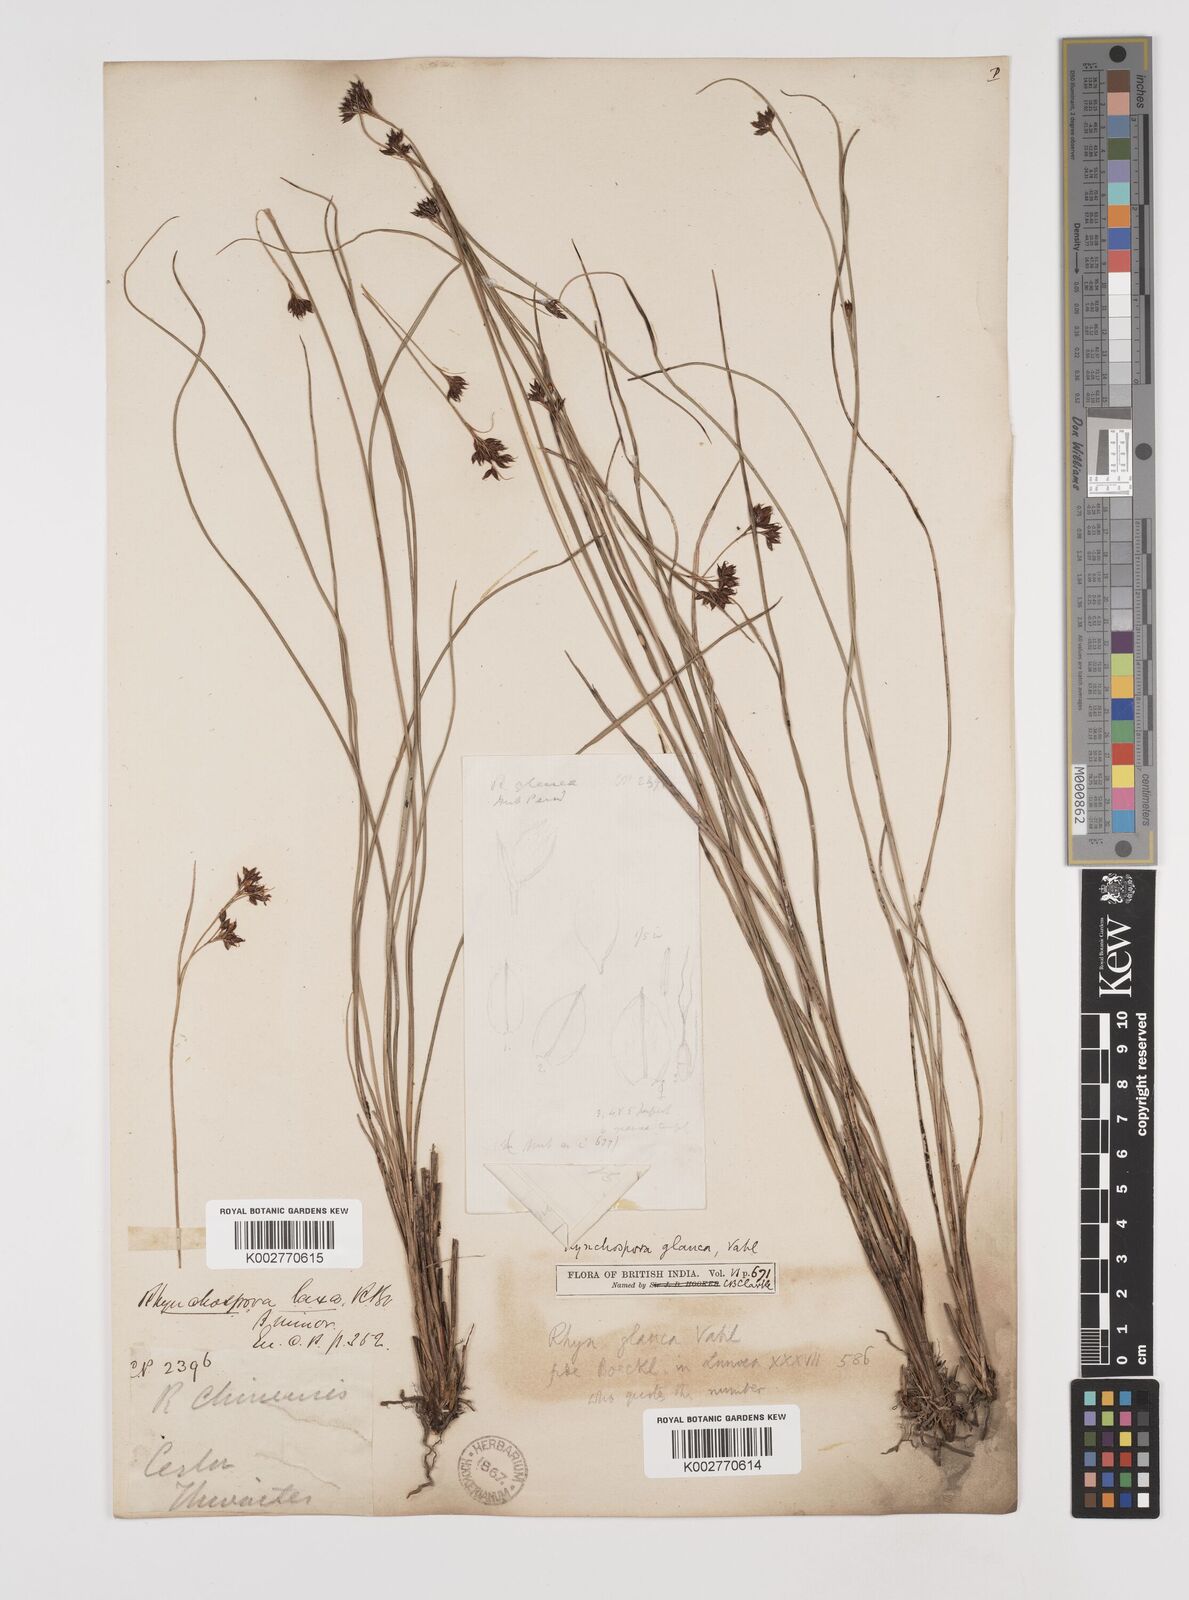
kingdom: Plantae
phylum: Tracheophyta
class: Liliopsida
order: Poales
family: Cyperaceae
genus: Rhynchospora
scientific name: Rhynchospora rugosa
